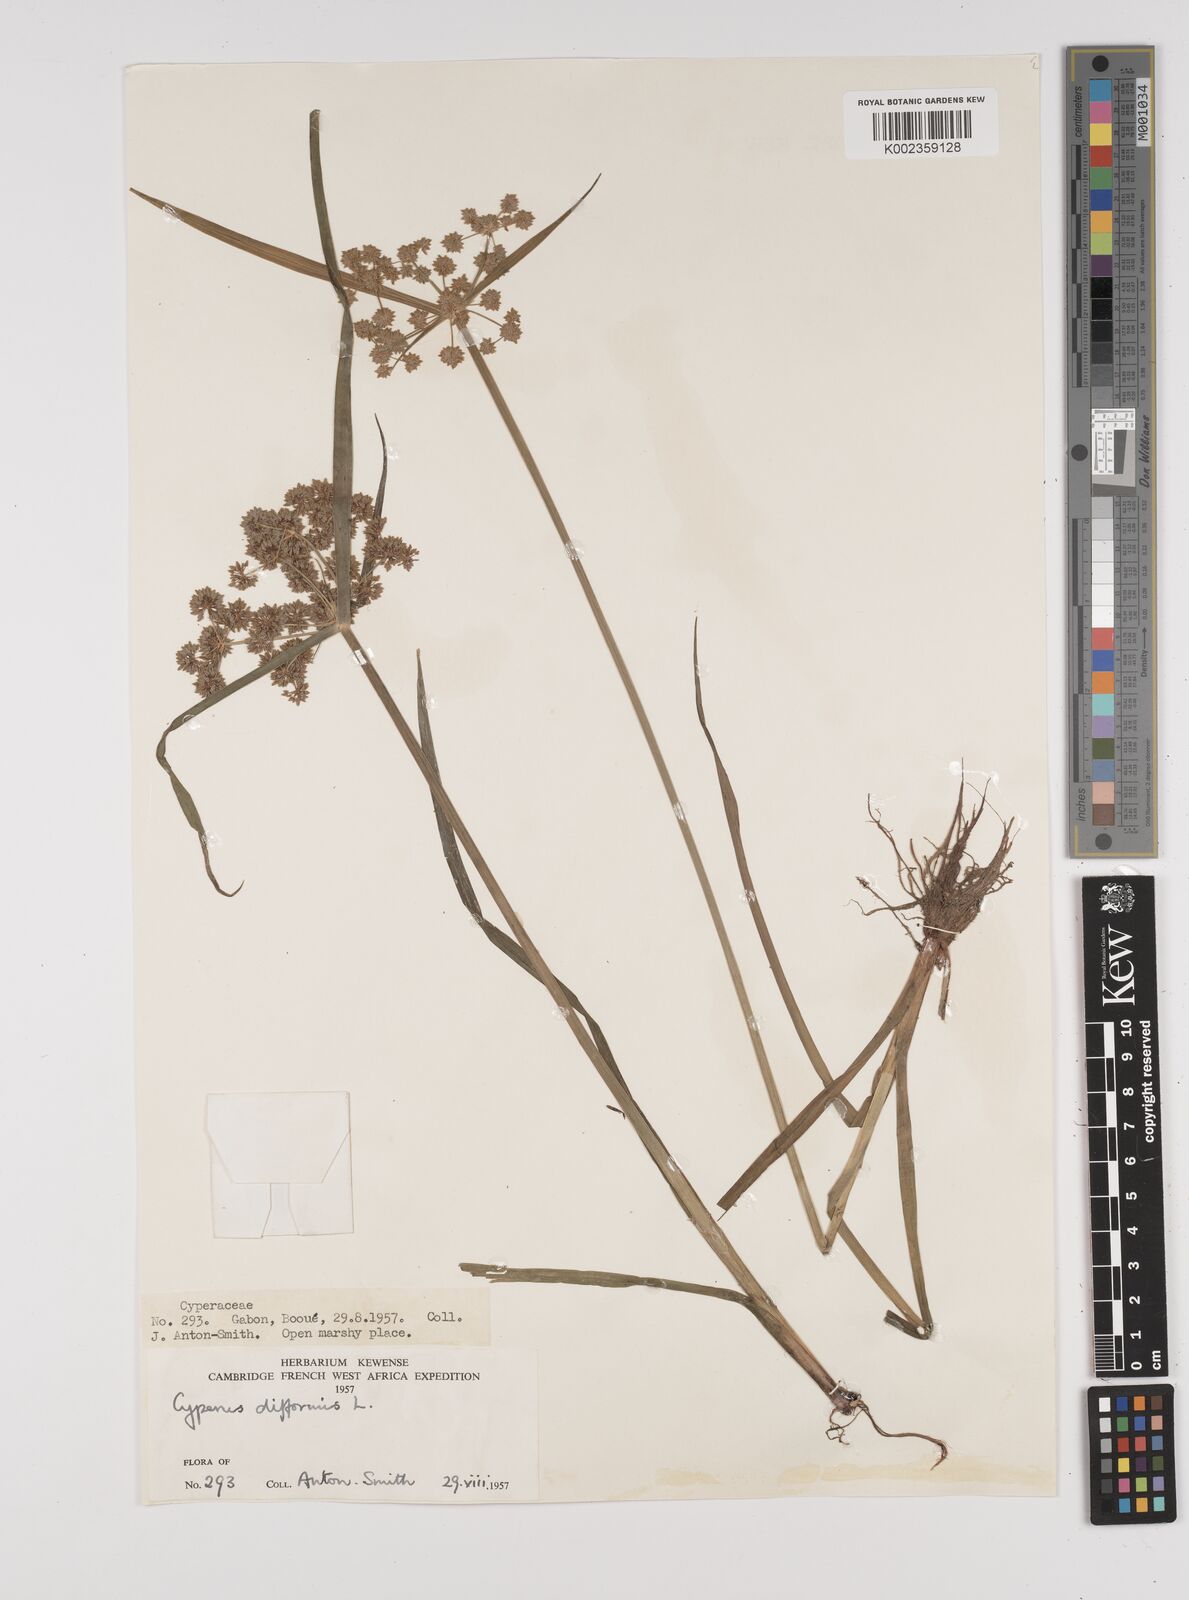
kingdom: Plantae
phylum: Tracheophyta
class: Liliopsida
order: Poales
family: Cyperaceae
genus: Cyperus
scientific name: Cyperus difformis
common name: Variable flatsedge
